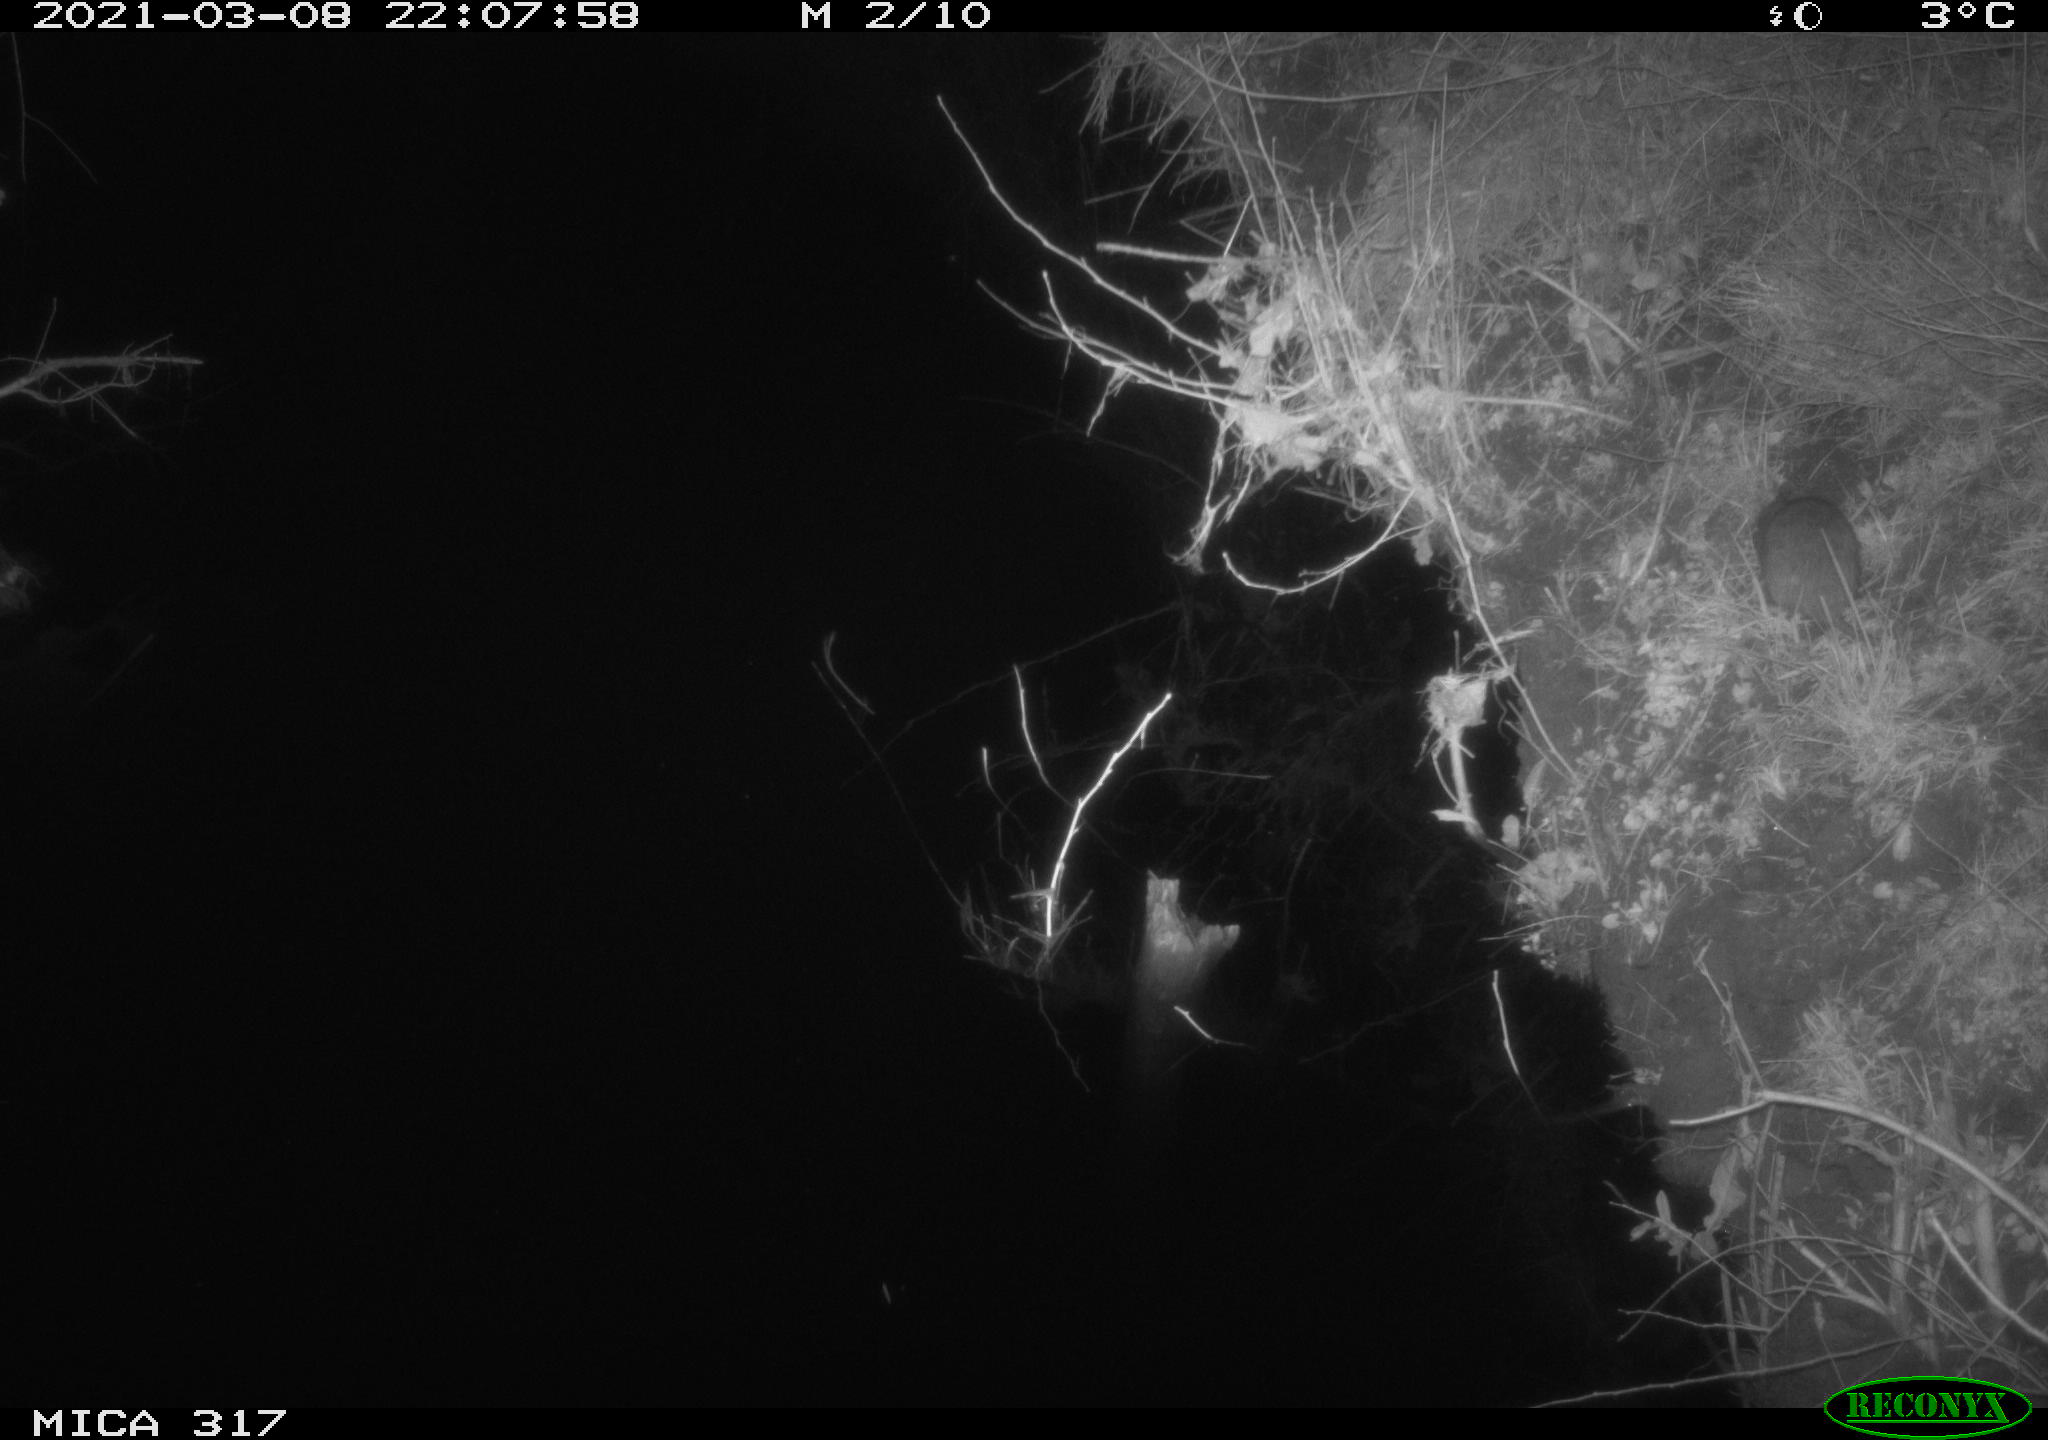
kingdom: Animalia
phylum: Chordata
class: Mammalia
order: Rodentia
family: Muridae
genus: Rattus
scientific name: Rattus norvegicus
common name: Brown rat
